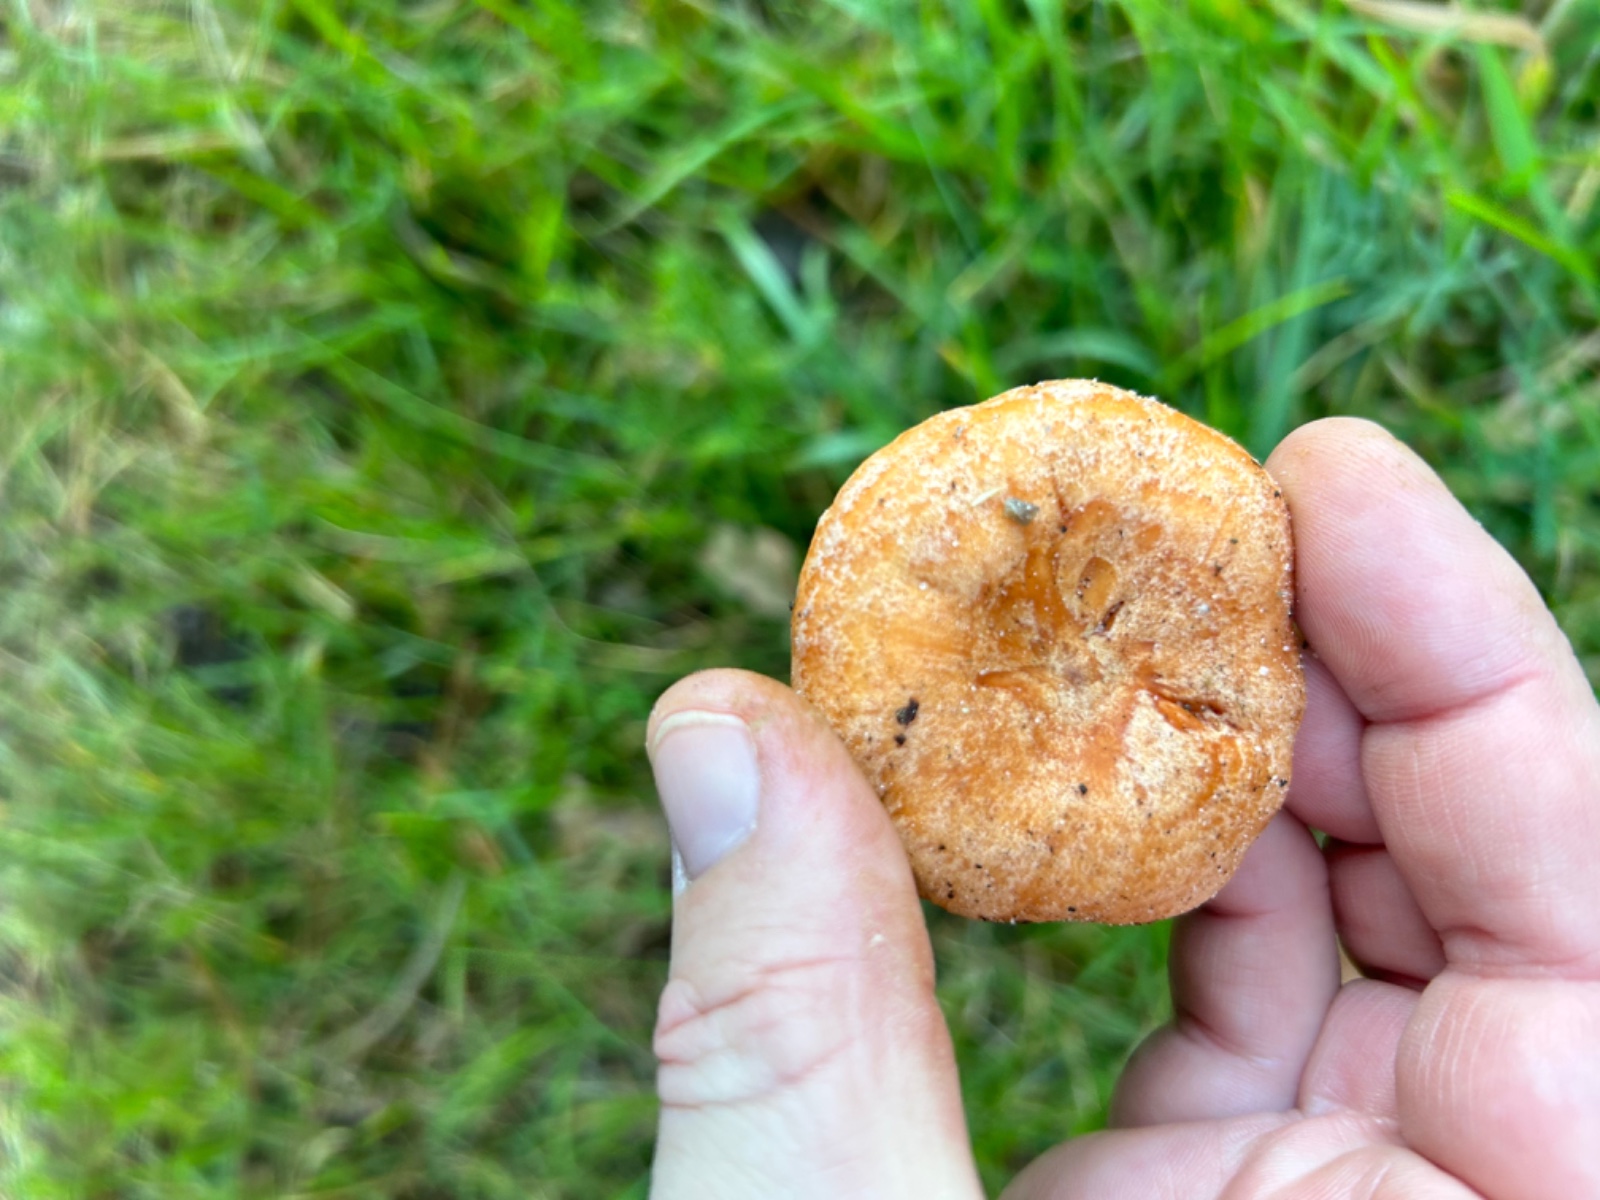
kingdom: Fungi
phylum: Basidiomycota
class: Agaricomycetes
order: Russulales
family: Russulaceae
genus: Lactarius
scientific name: Lactarius deliciosus
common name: velsmagende mælkehat
